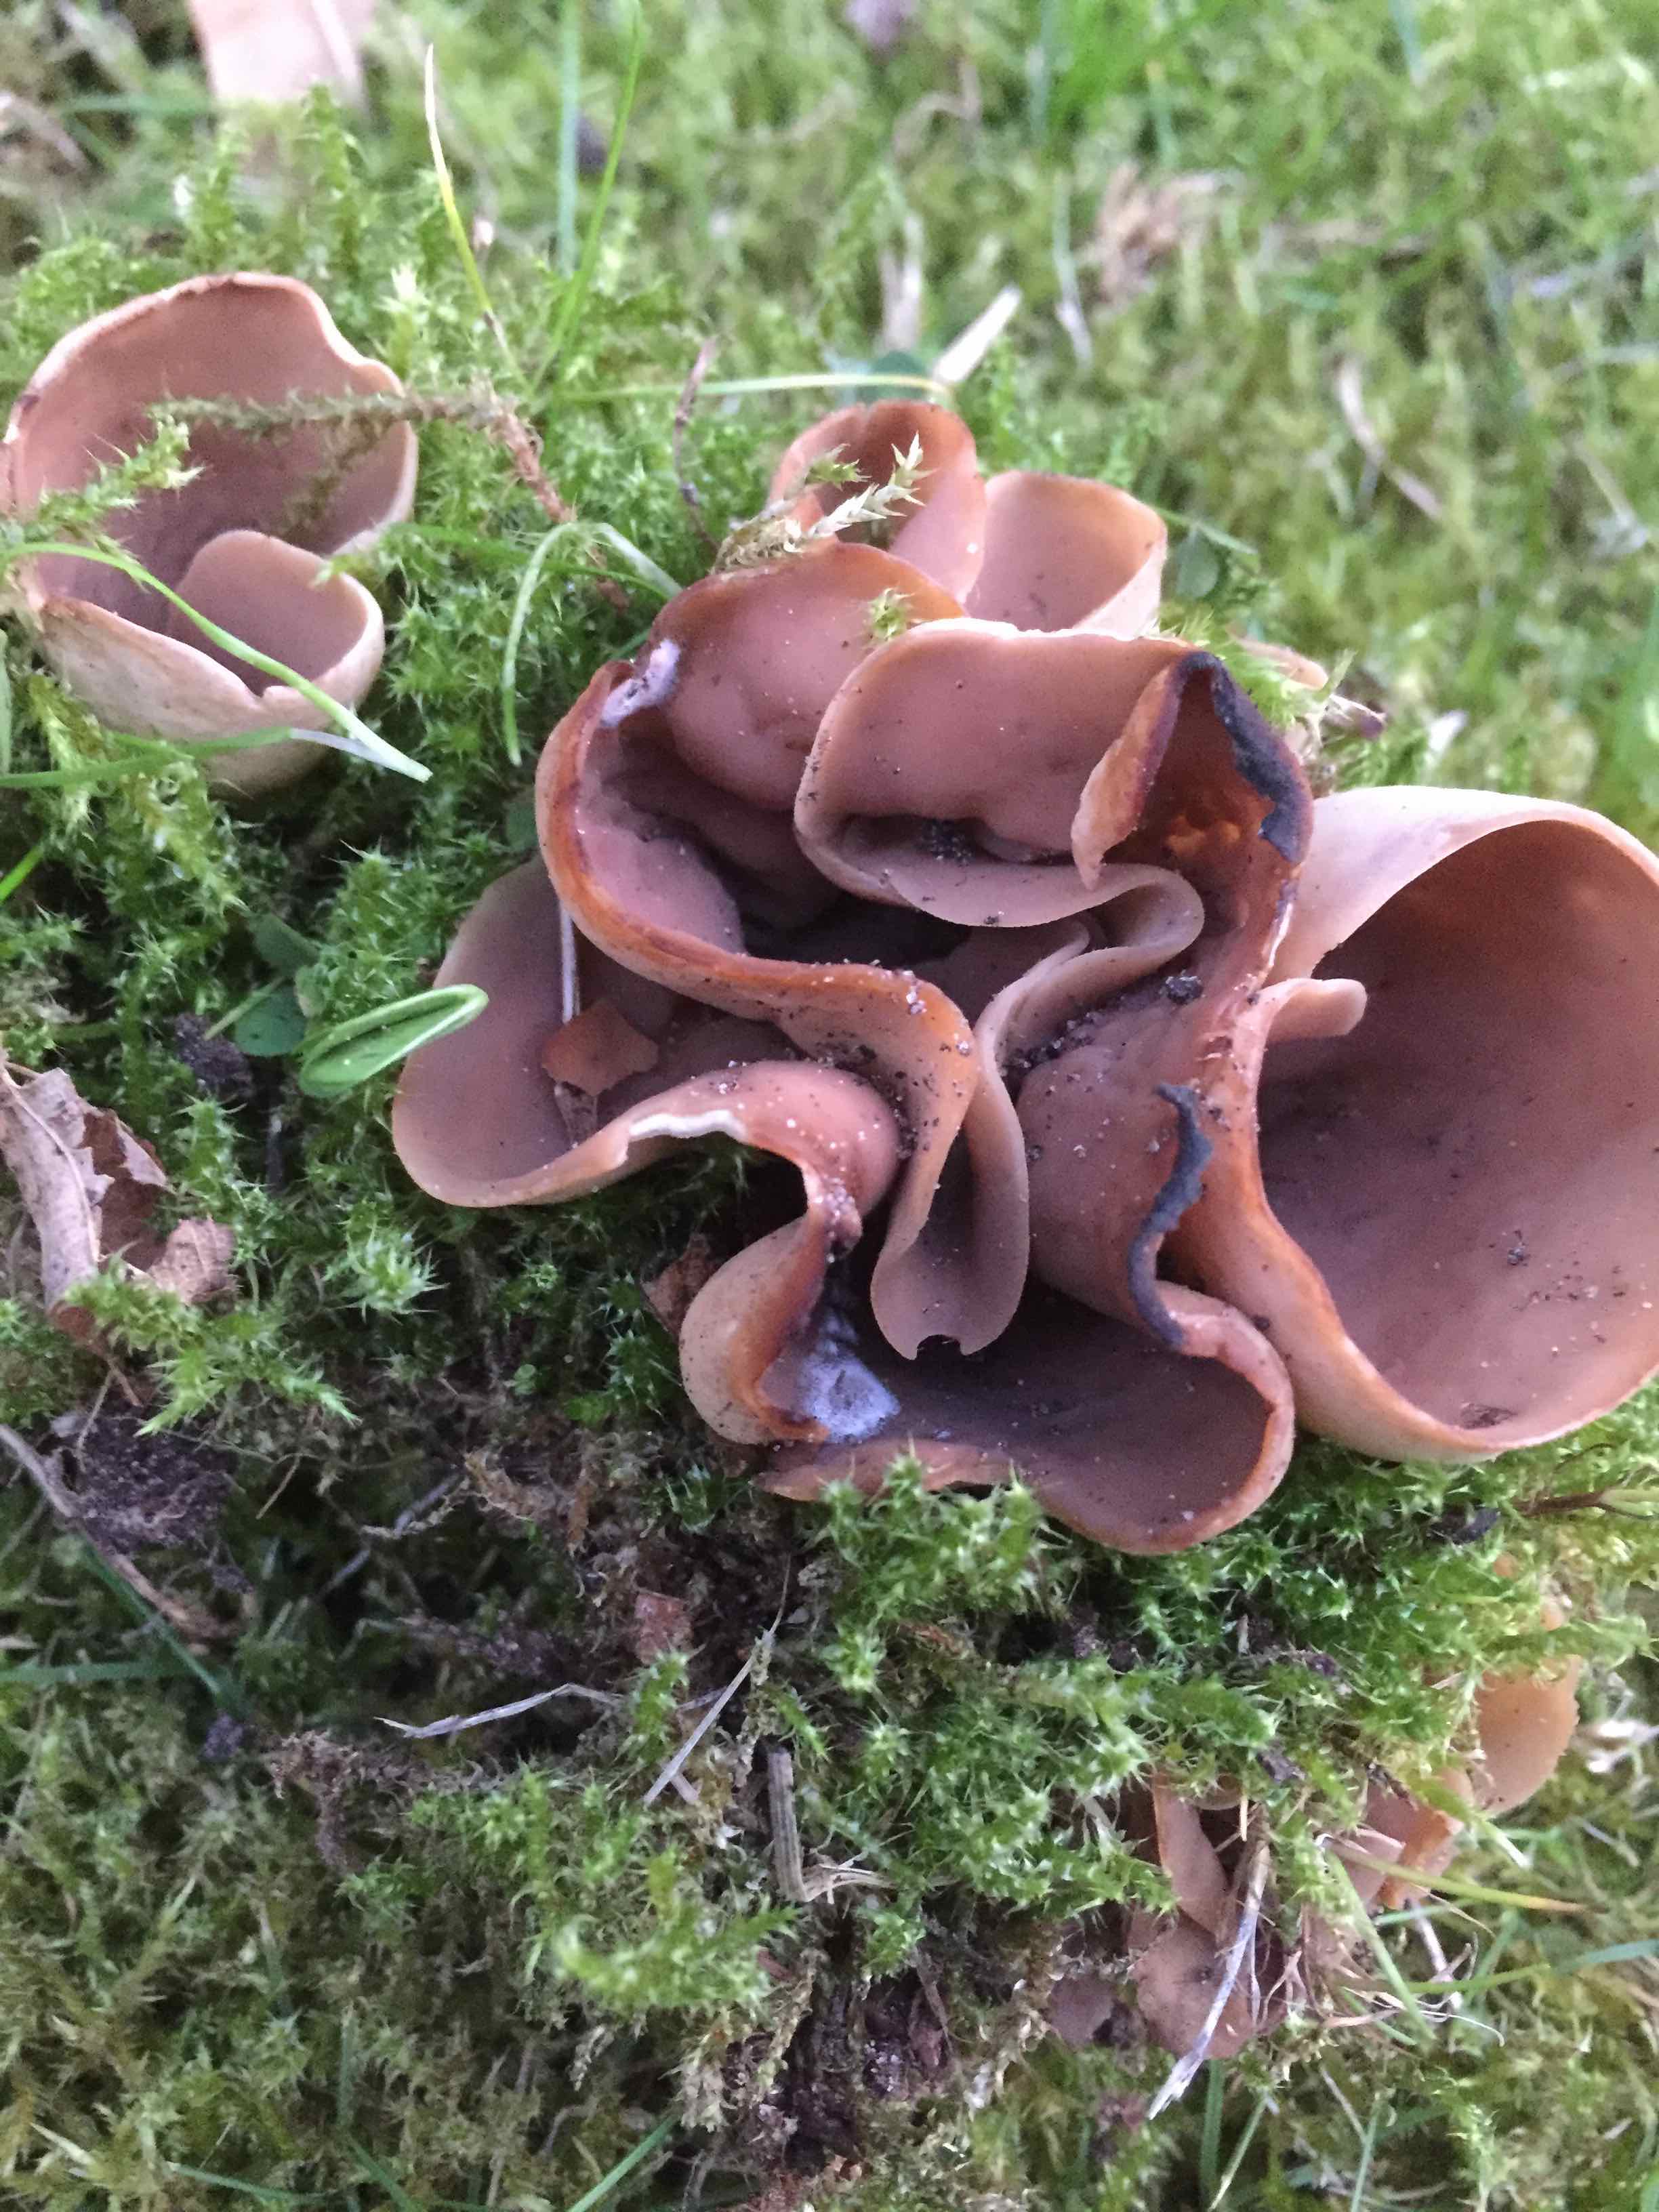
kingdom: Fungi
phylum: Ascomycota
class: Pezizomycetes
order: Pezizales
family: Otideaceae
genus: Otidea
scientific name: Otidea alutacea
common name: læder-ørebæger
